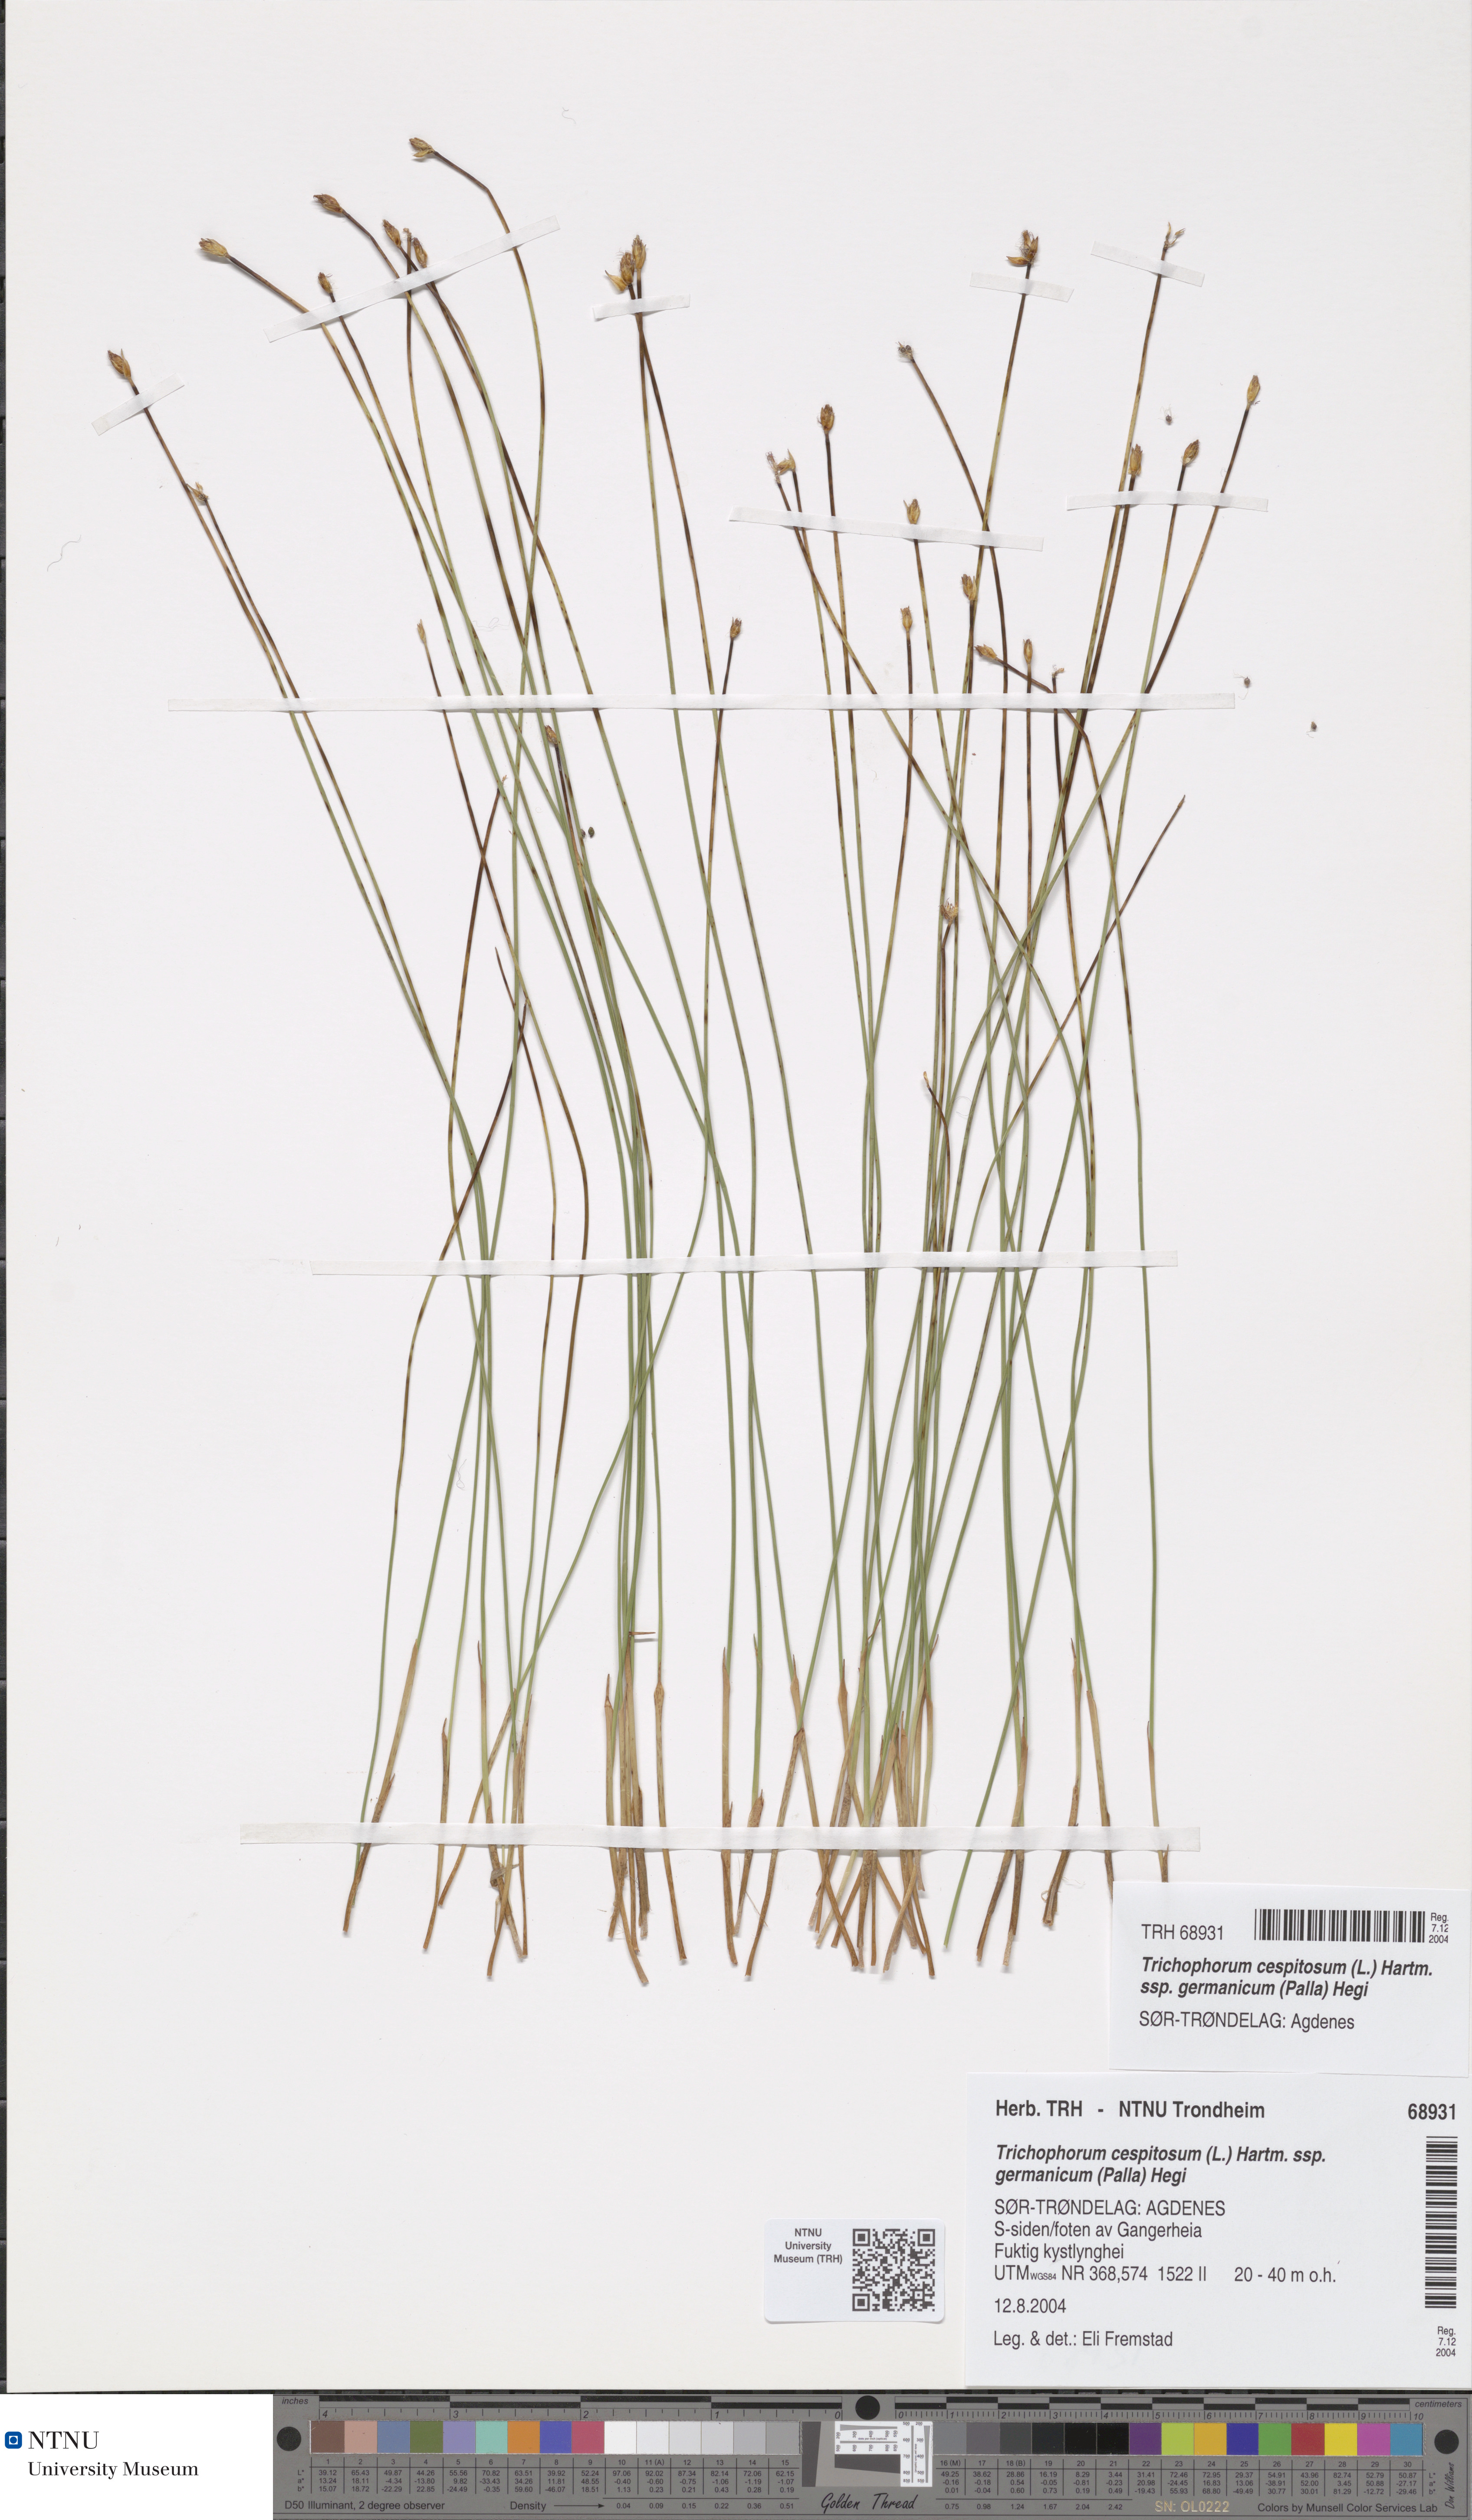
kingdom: Plantae
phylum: Tracheophyta
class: Liliopsida
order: Poales
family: Cyperaceae
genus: Trichophorum
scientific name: Trichophorum cespitosum
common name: Cespitose bulrush
